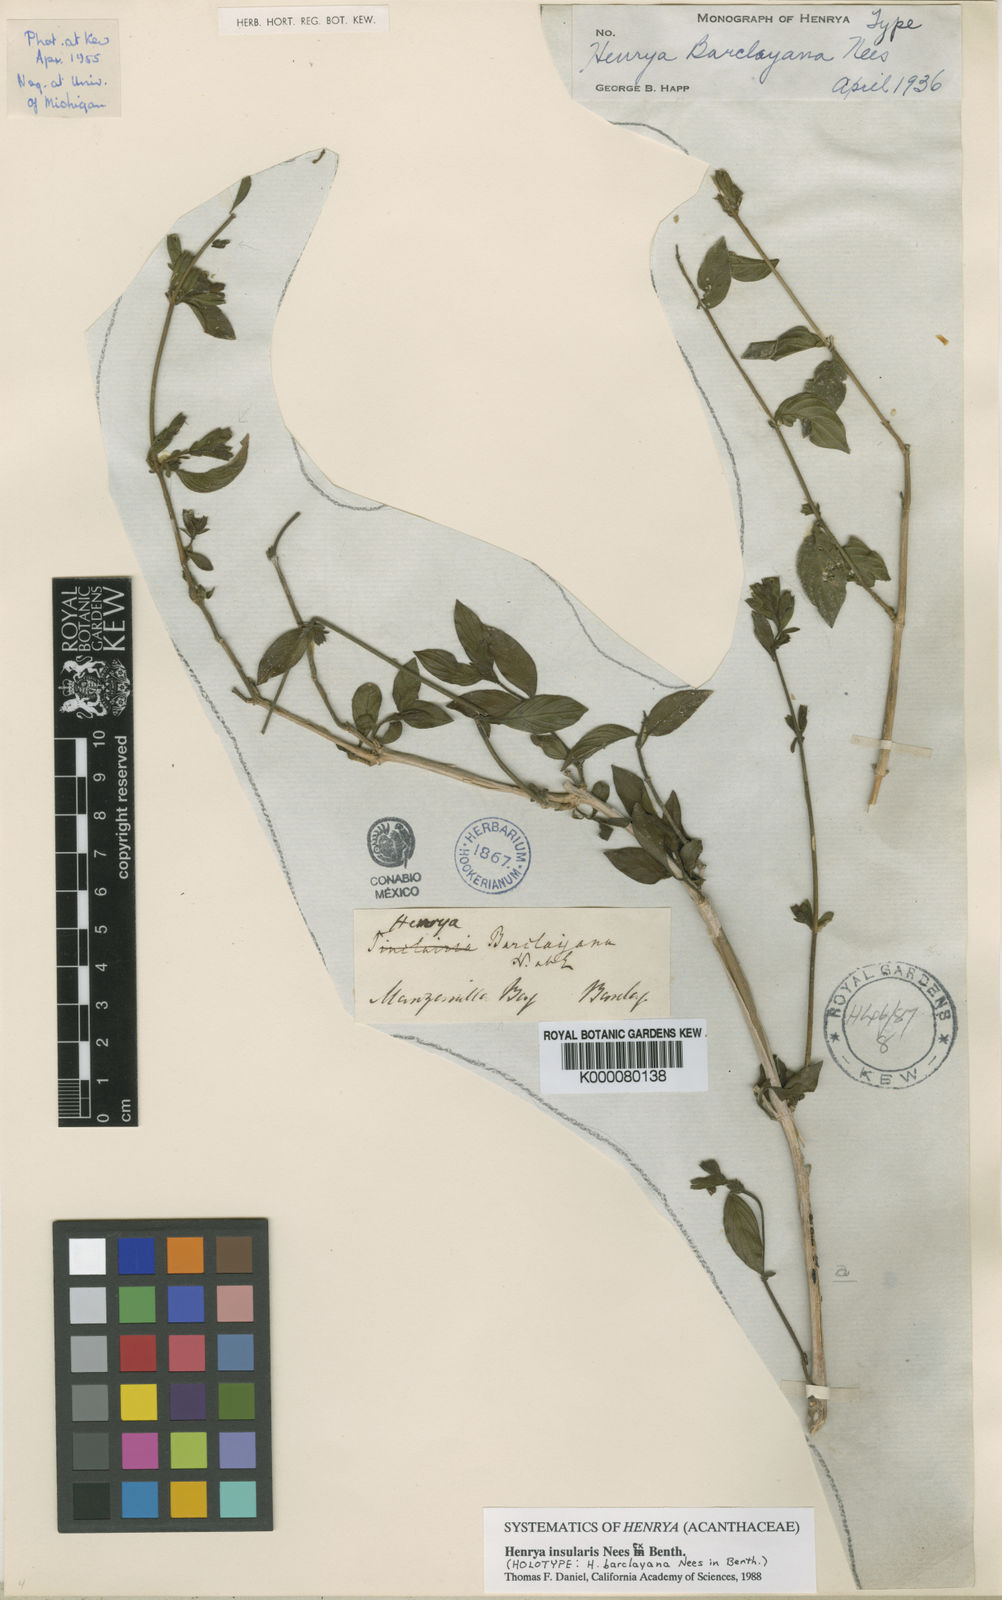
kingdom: Plantae
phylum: Tracheophyta
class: Magnoliopsida
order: Lamiales
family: Acanthaceae
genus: Henrya
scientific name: Henrya
